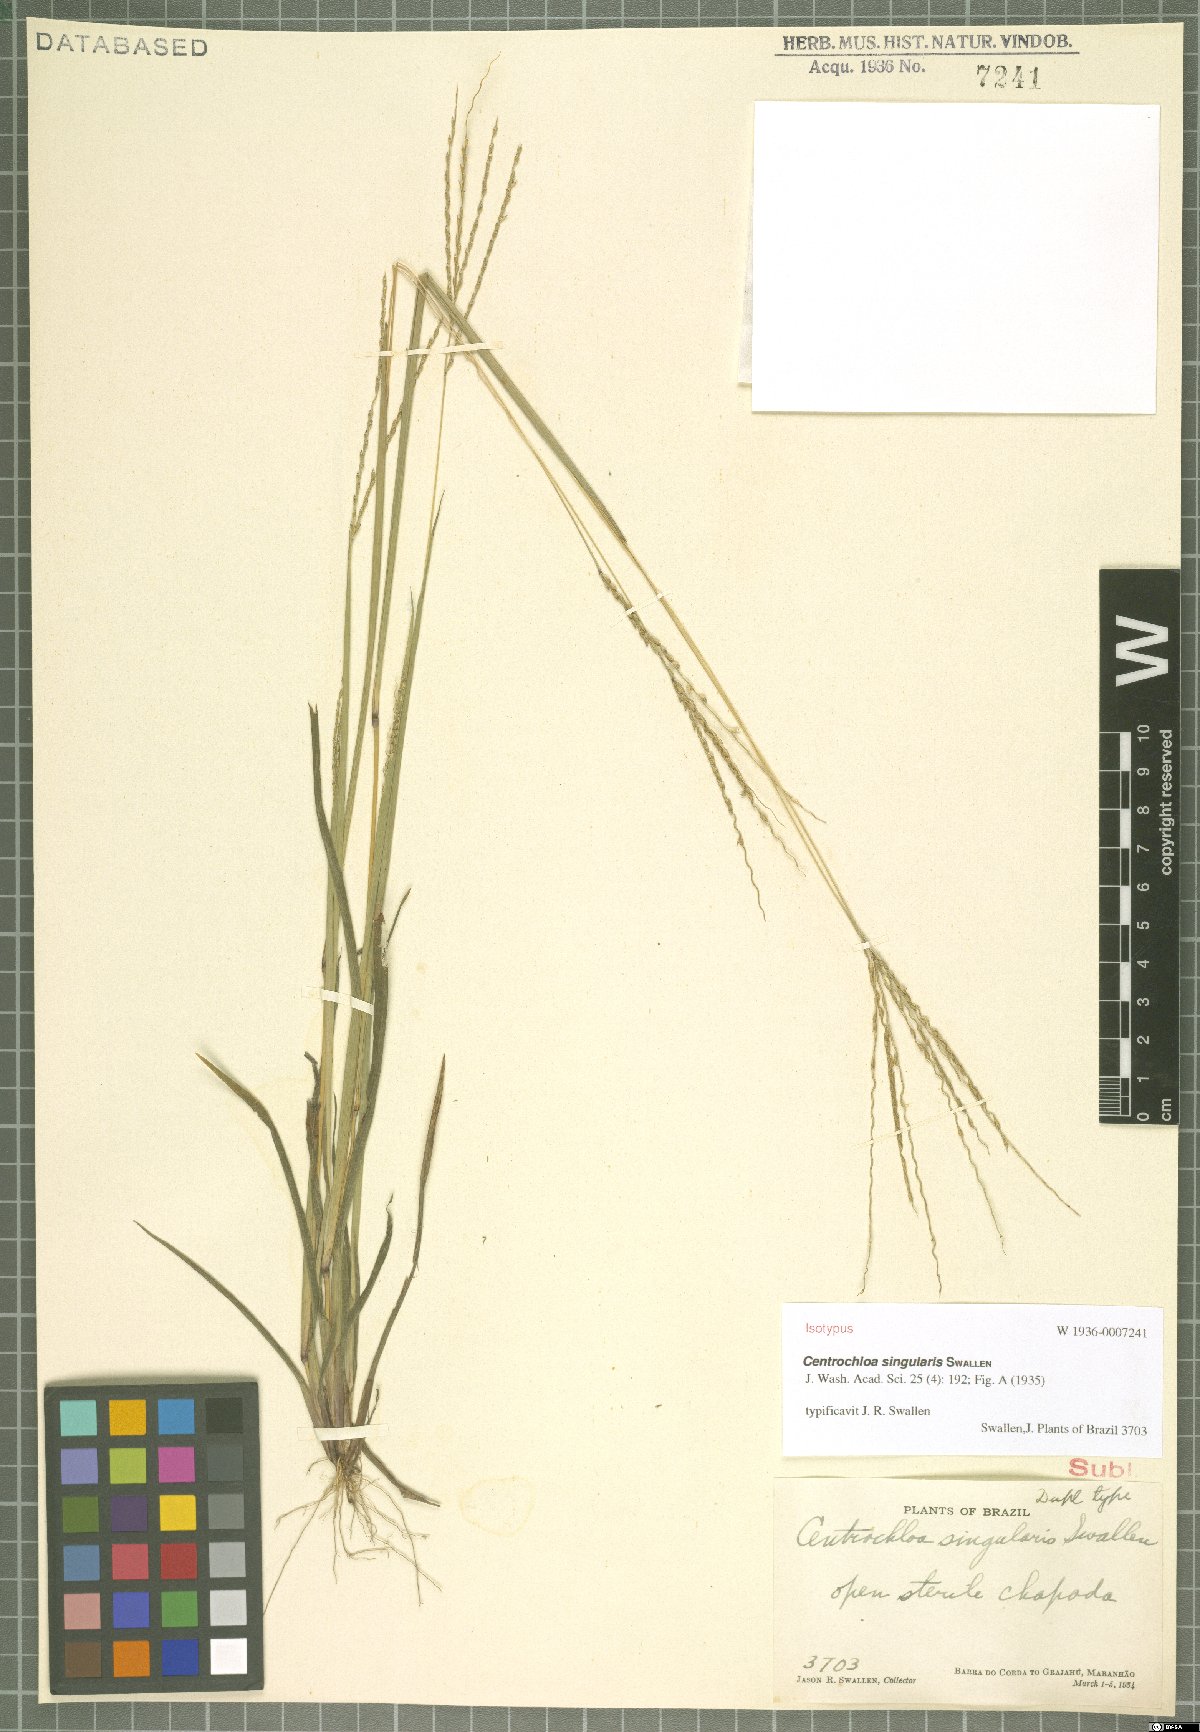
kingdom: Plantae
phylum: Tracheophyta
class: Liliopsida
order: Poales
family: Poaceae
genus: Axonopus
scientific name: Axonopus singularis
